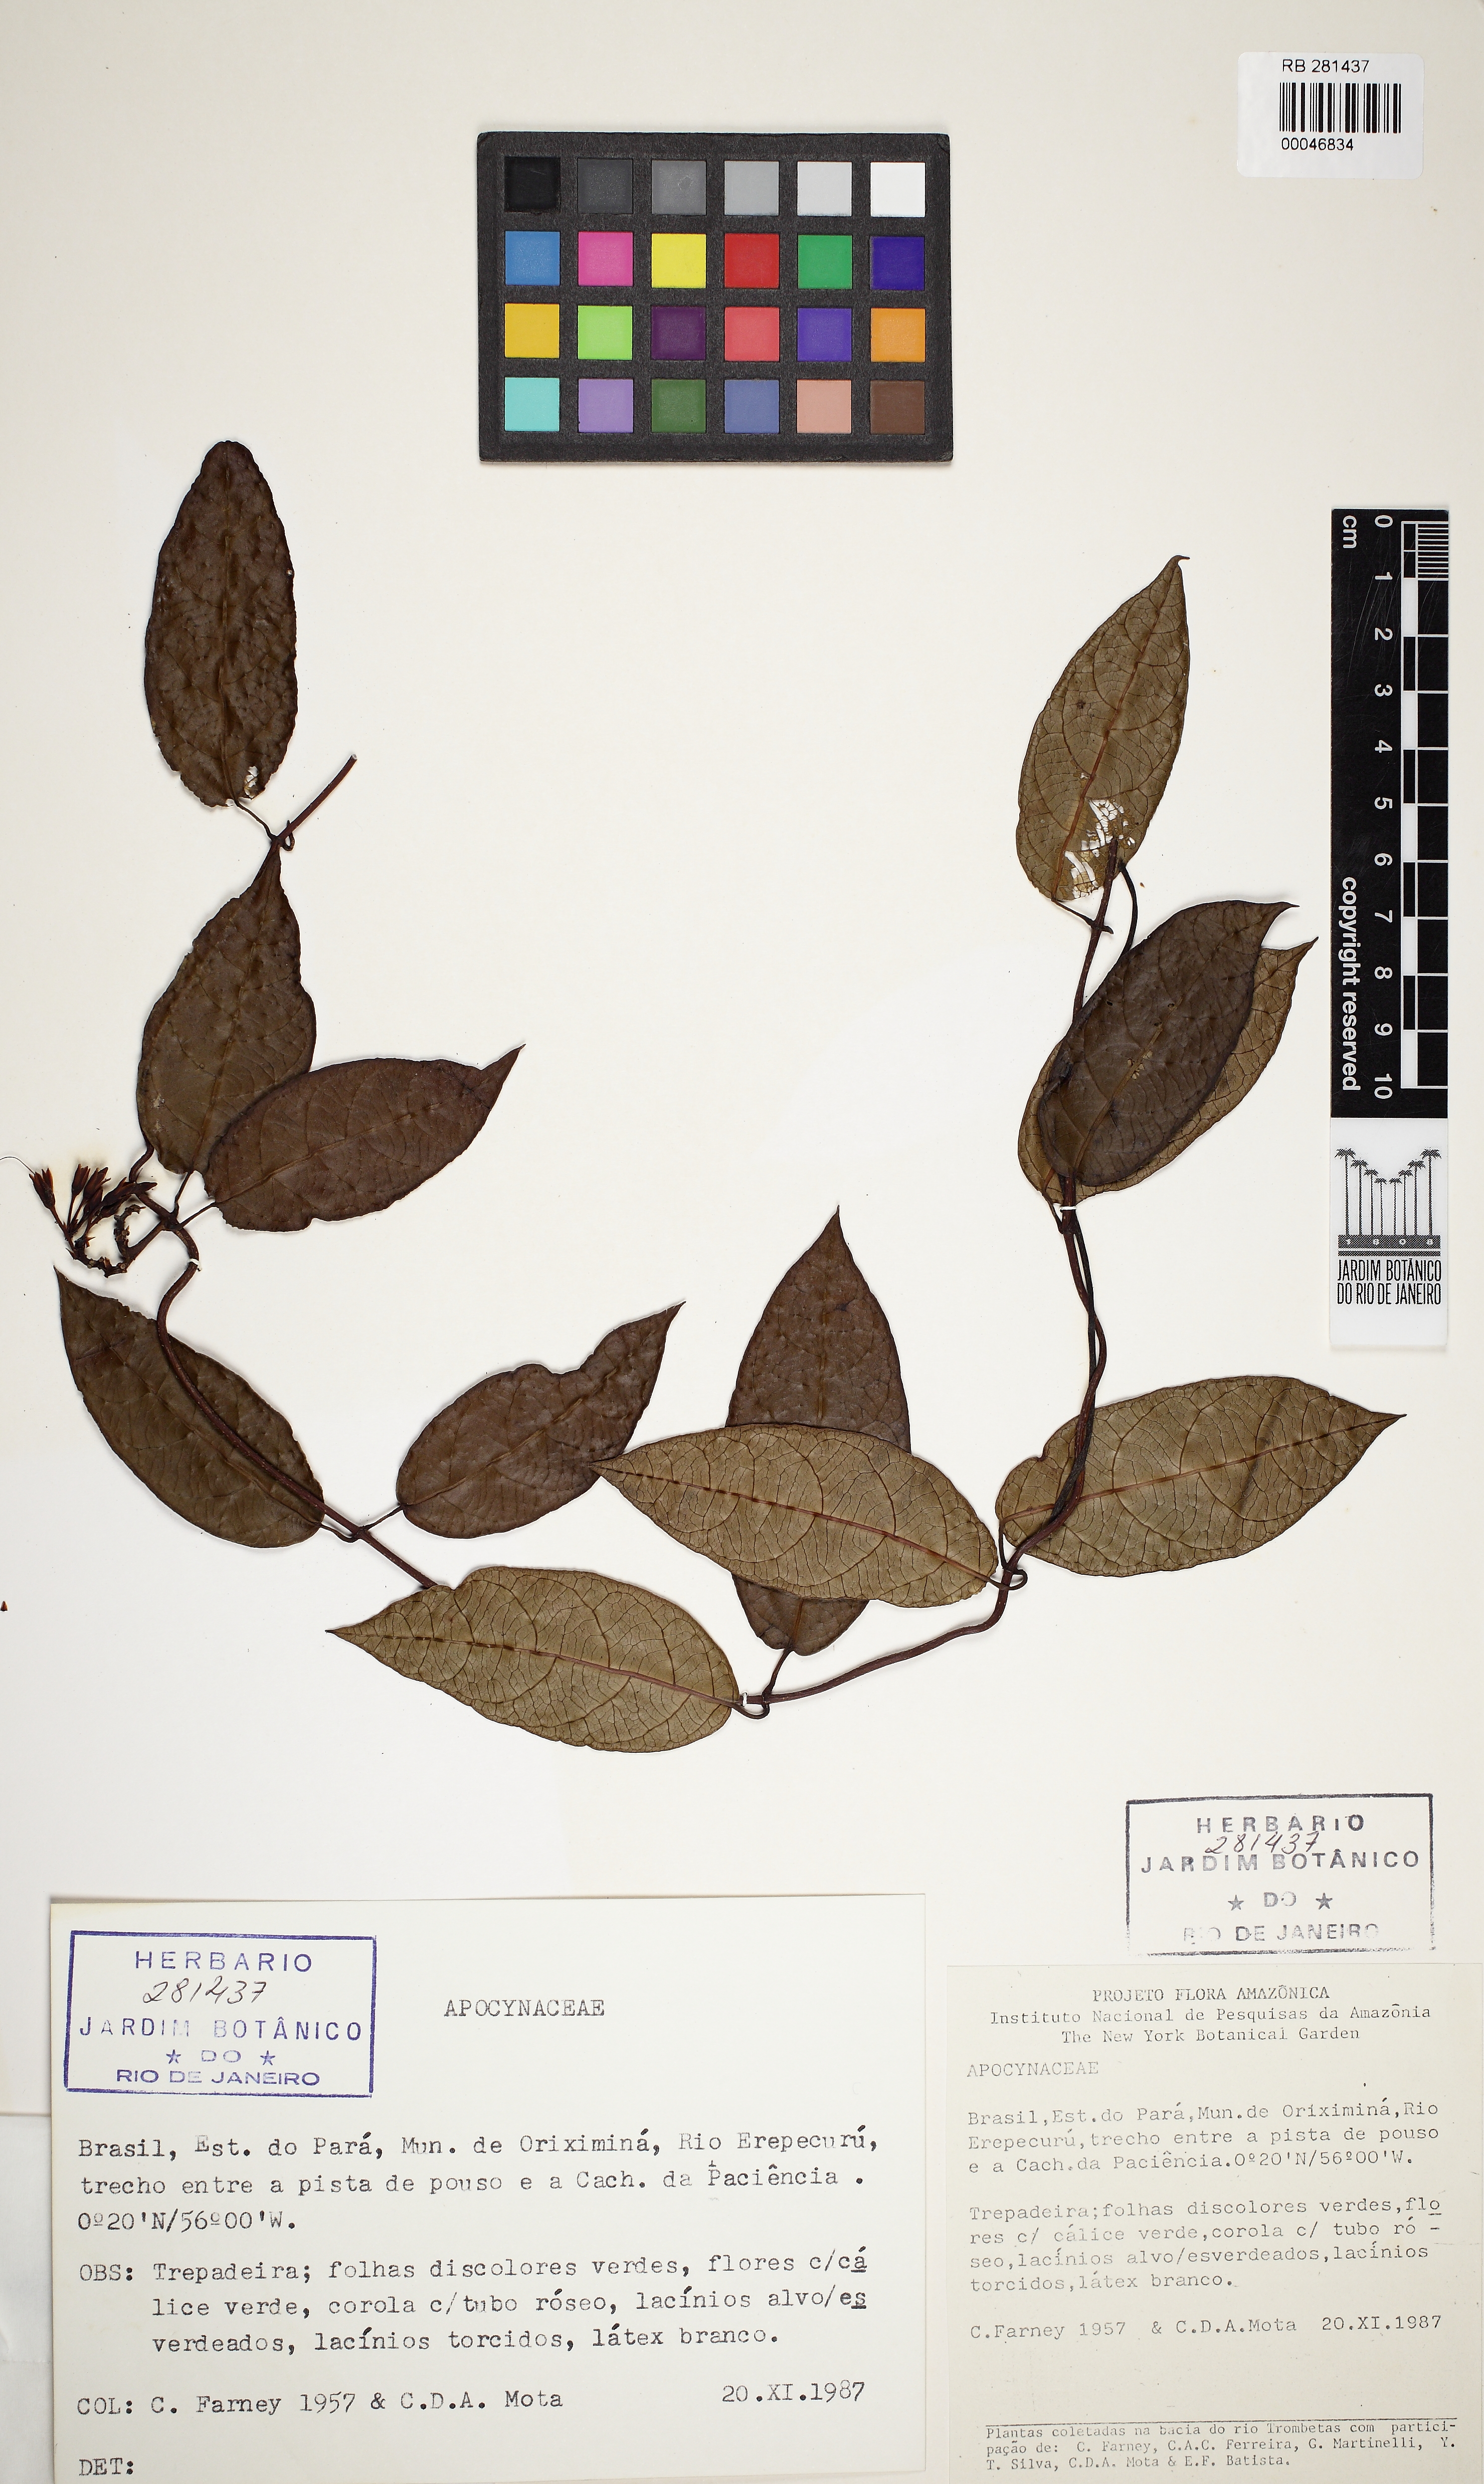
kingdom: Plantae
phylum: Tracheophyta
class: Magnoliopsida
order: Gentianales
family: Apocynaceae
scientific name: Apocynaceae
